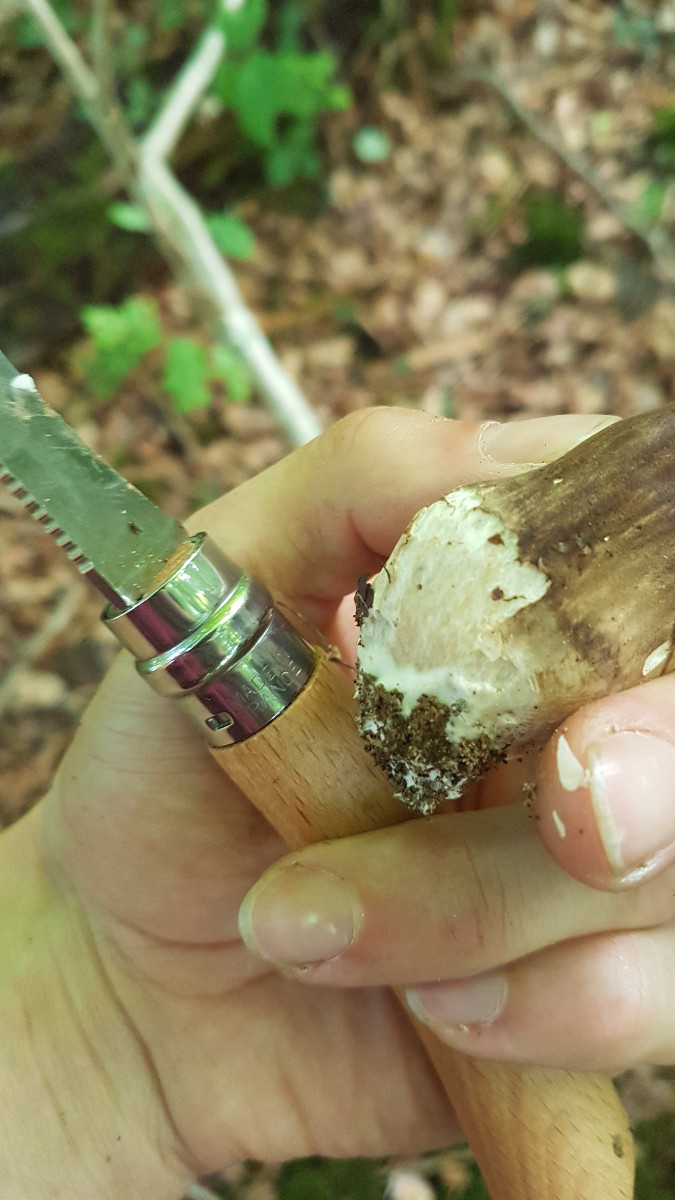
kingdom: Fungi
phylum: Basidiomycota
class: Agaricomycetes
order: Boletales
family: Boletaceae
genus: Porphyrellus
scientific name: Porphyrellus porphyrosporus
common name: sodrørhat
